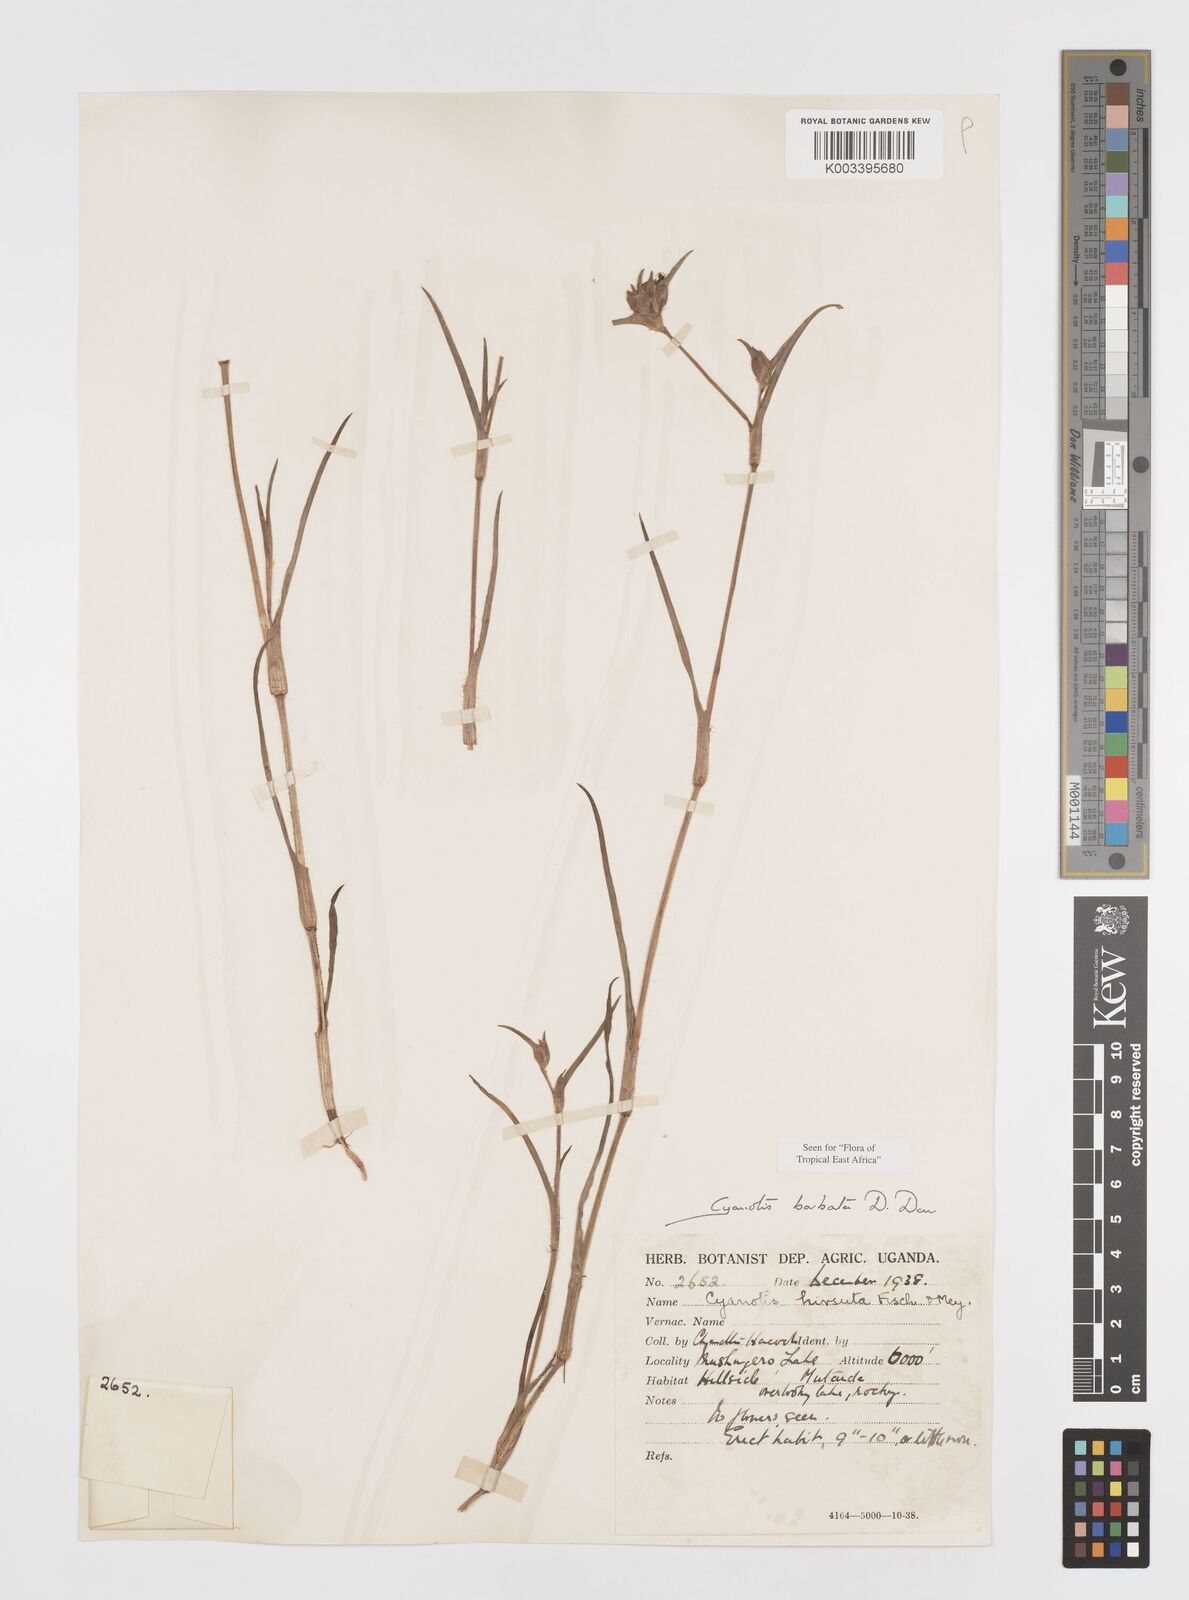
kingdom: Plantae
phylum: Tracheophyta
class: Liliopsida
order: Commelinales
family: Commelinaceae
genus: Cyanotis
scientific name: Cyanotis vaga
